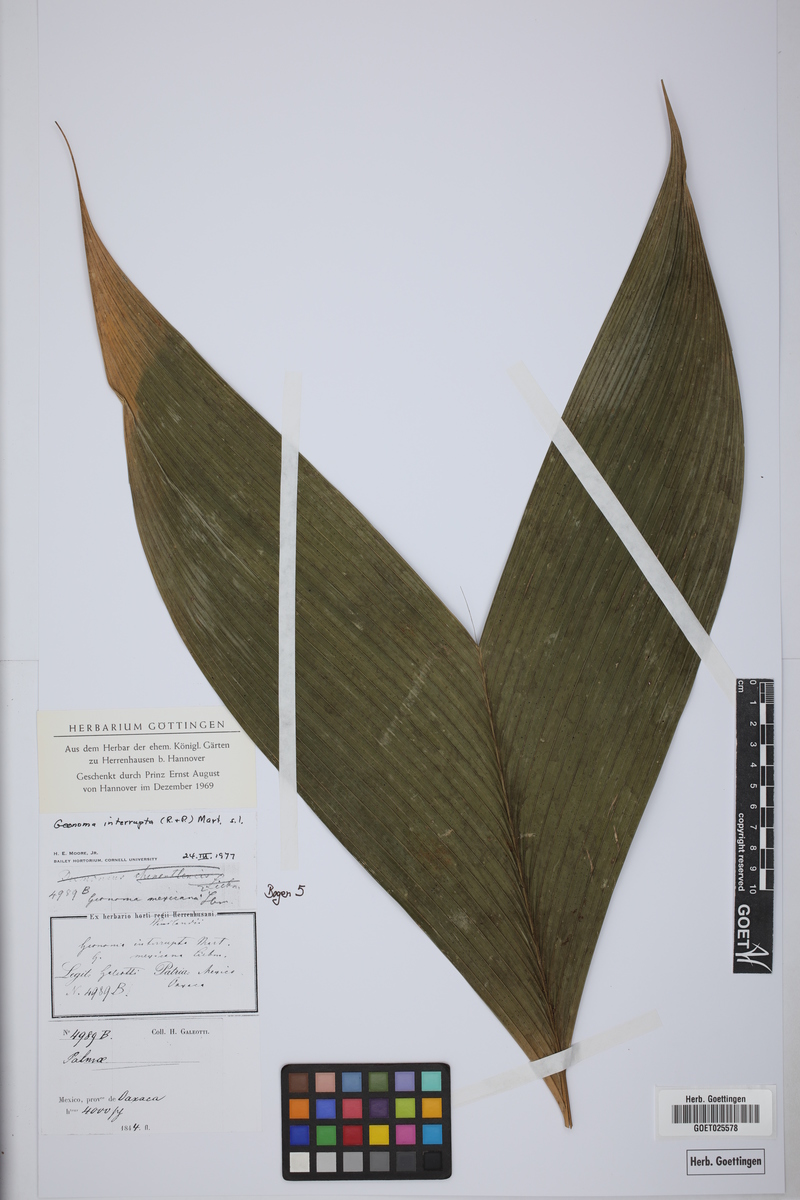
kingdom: Plantae
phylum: Tracheophyta
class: Liliopsida
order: Arecales
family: Arecaceae
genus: Geonoma
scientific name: Geonoma interrupta
